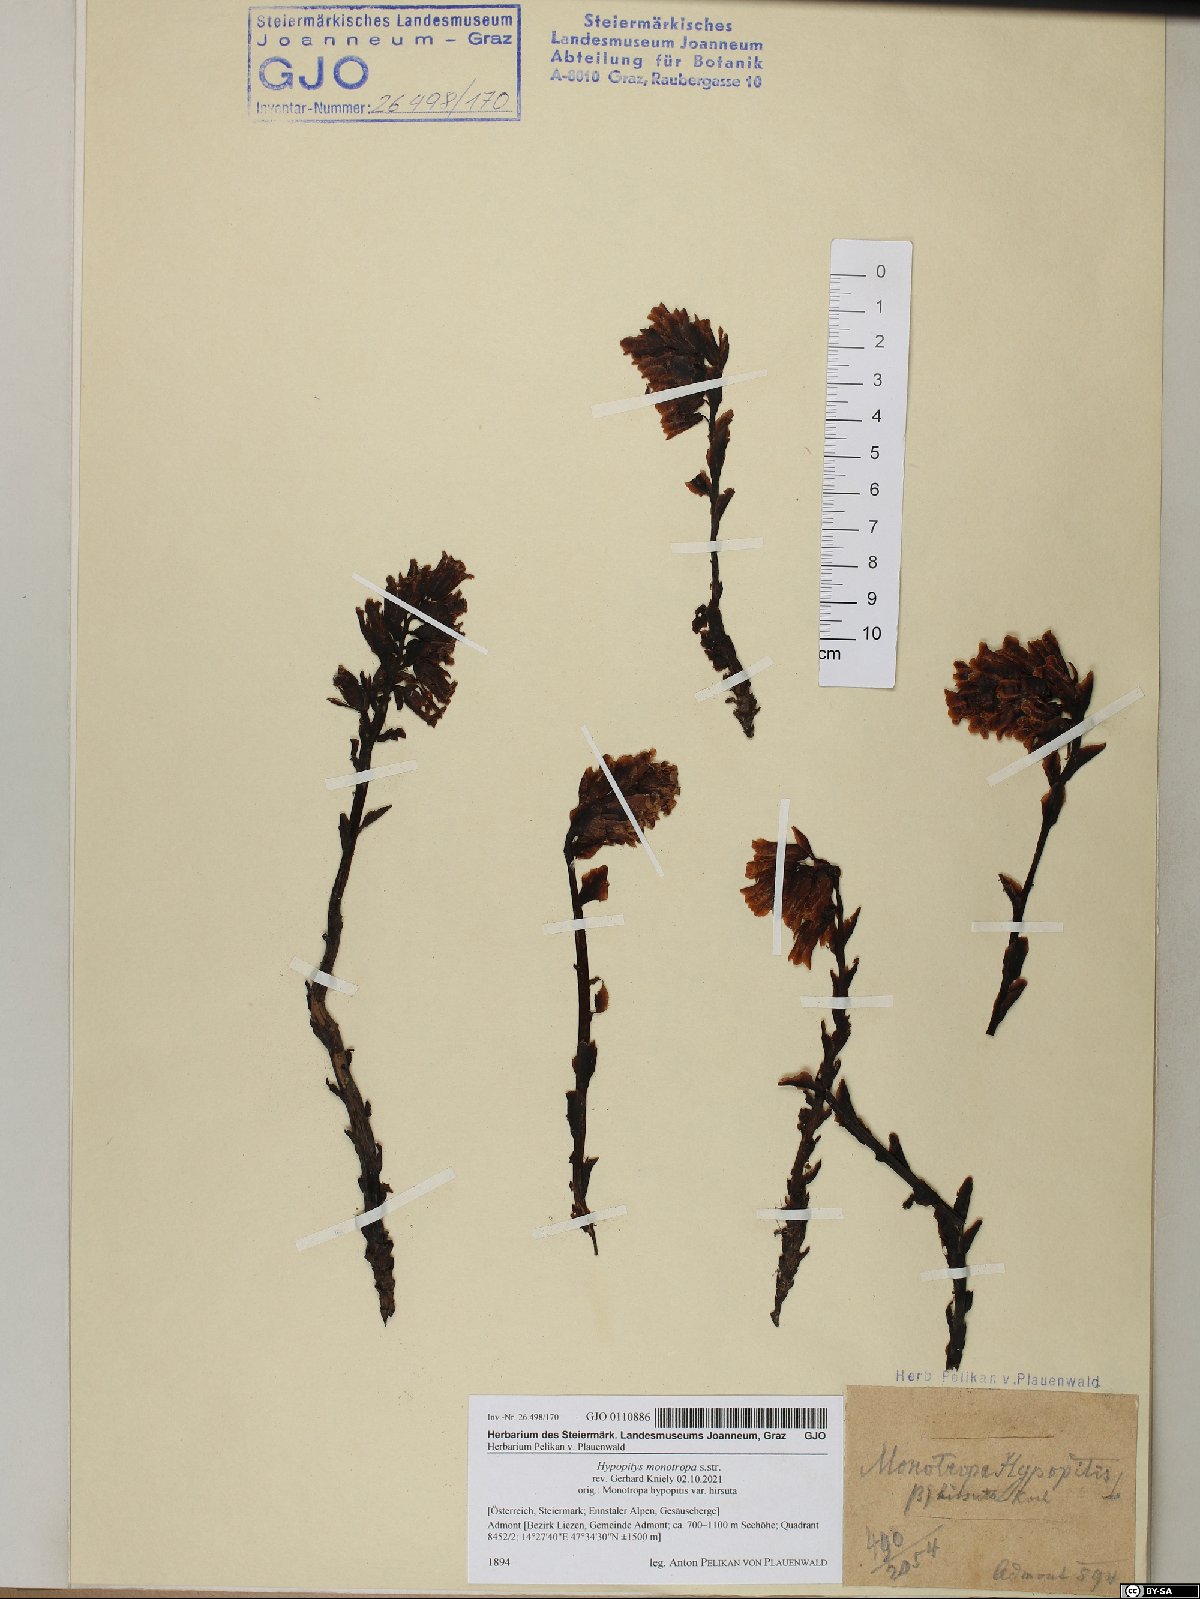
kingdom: Plantae
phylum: Tracheophyta
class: Magnoliopsida
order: Ericales
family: Ericaceae
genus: Hypopitys
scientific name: Hypopitys monotropa
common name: Yellow bird's-nest
